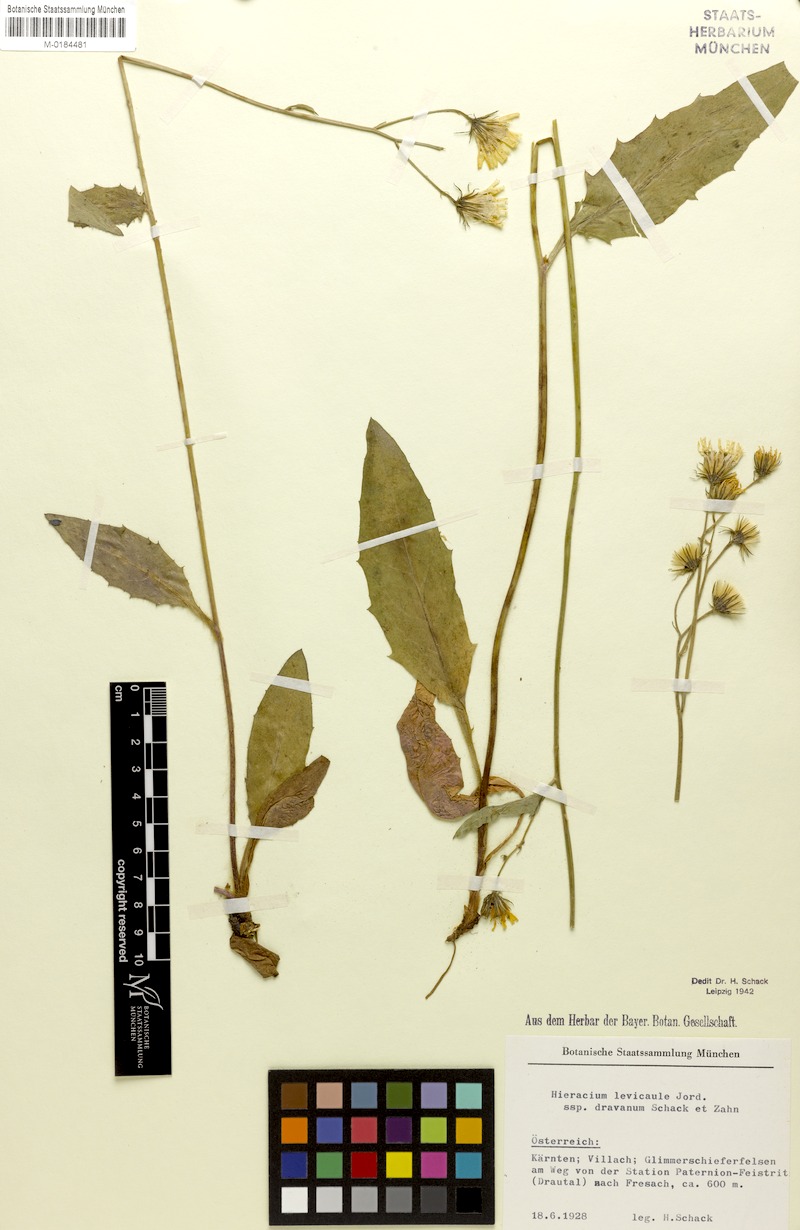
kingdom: Plantae
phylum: Tracheophyta
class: Magnoliopsida
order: Asterales
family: Asteraceae
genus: Hieracium
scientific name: Hieracium levicaule
